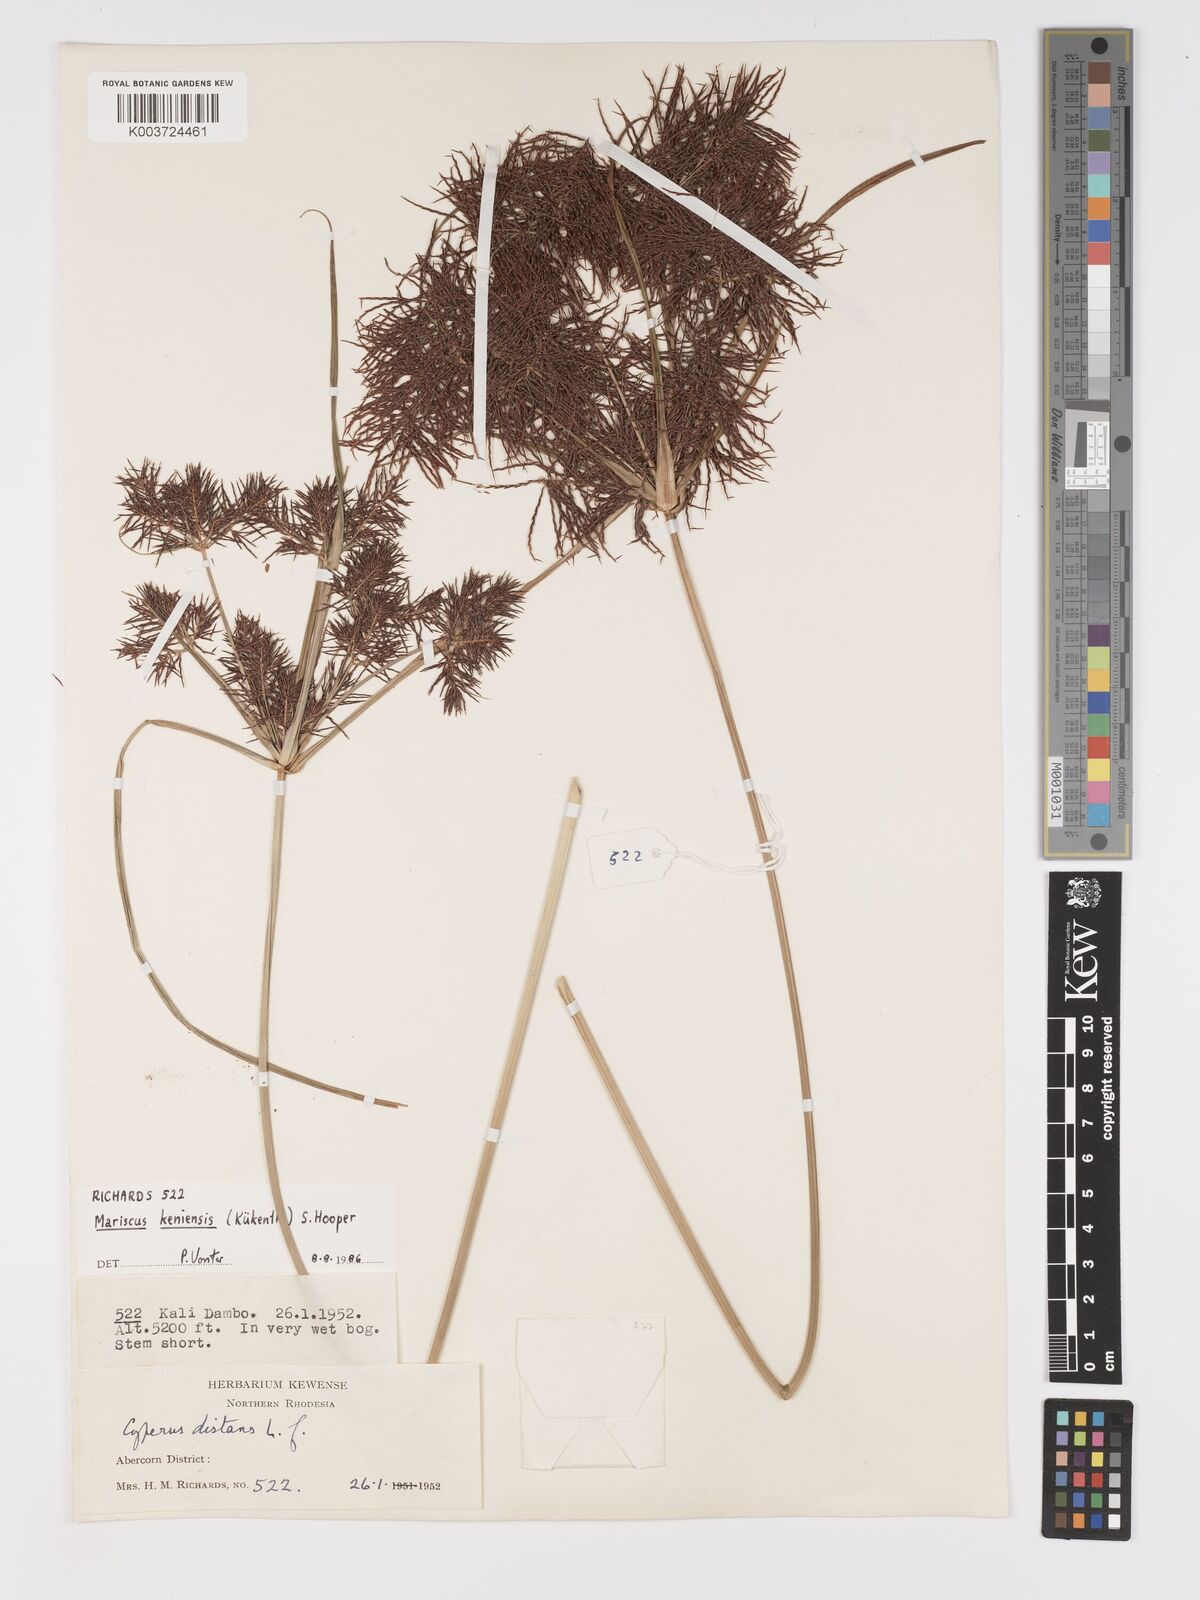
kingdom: Plantae
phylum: Tracheophyta
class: Liliopsida
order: Poales
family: Cyperaceae
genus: Cyperus
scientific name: Cyperus
